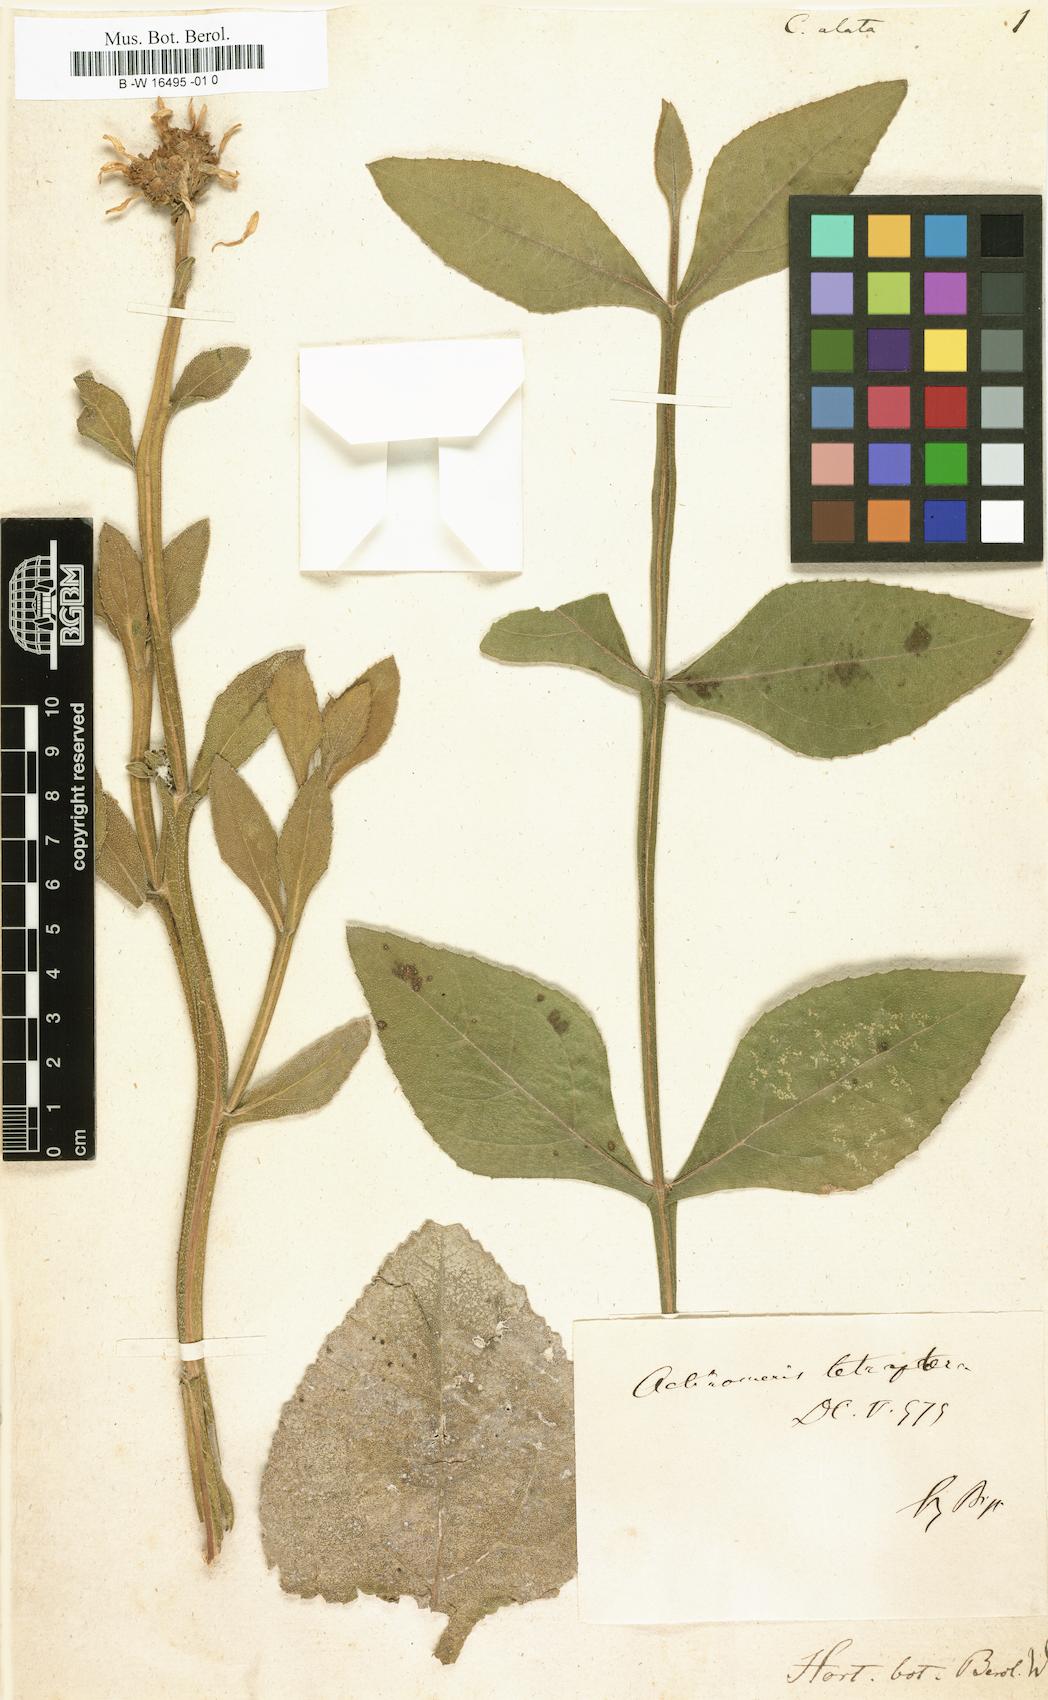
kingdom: Plantae
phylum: Tracheophyta
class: Magnoliopsida
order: Asterales
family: Asteraceae
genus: Verbesina
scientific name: Verbesina occidentalis
